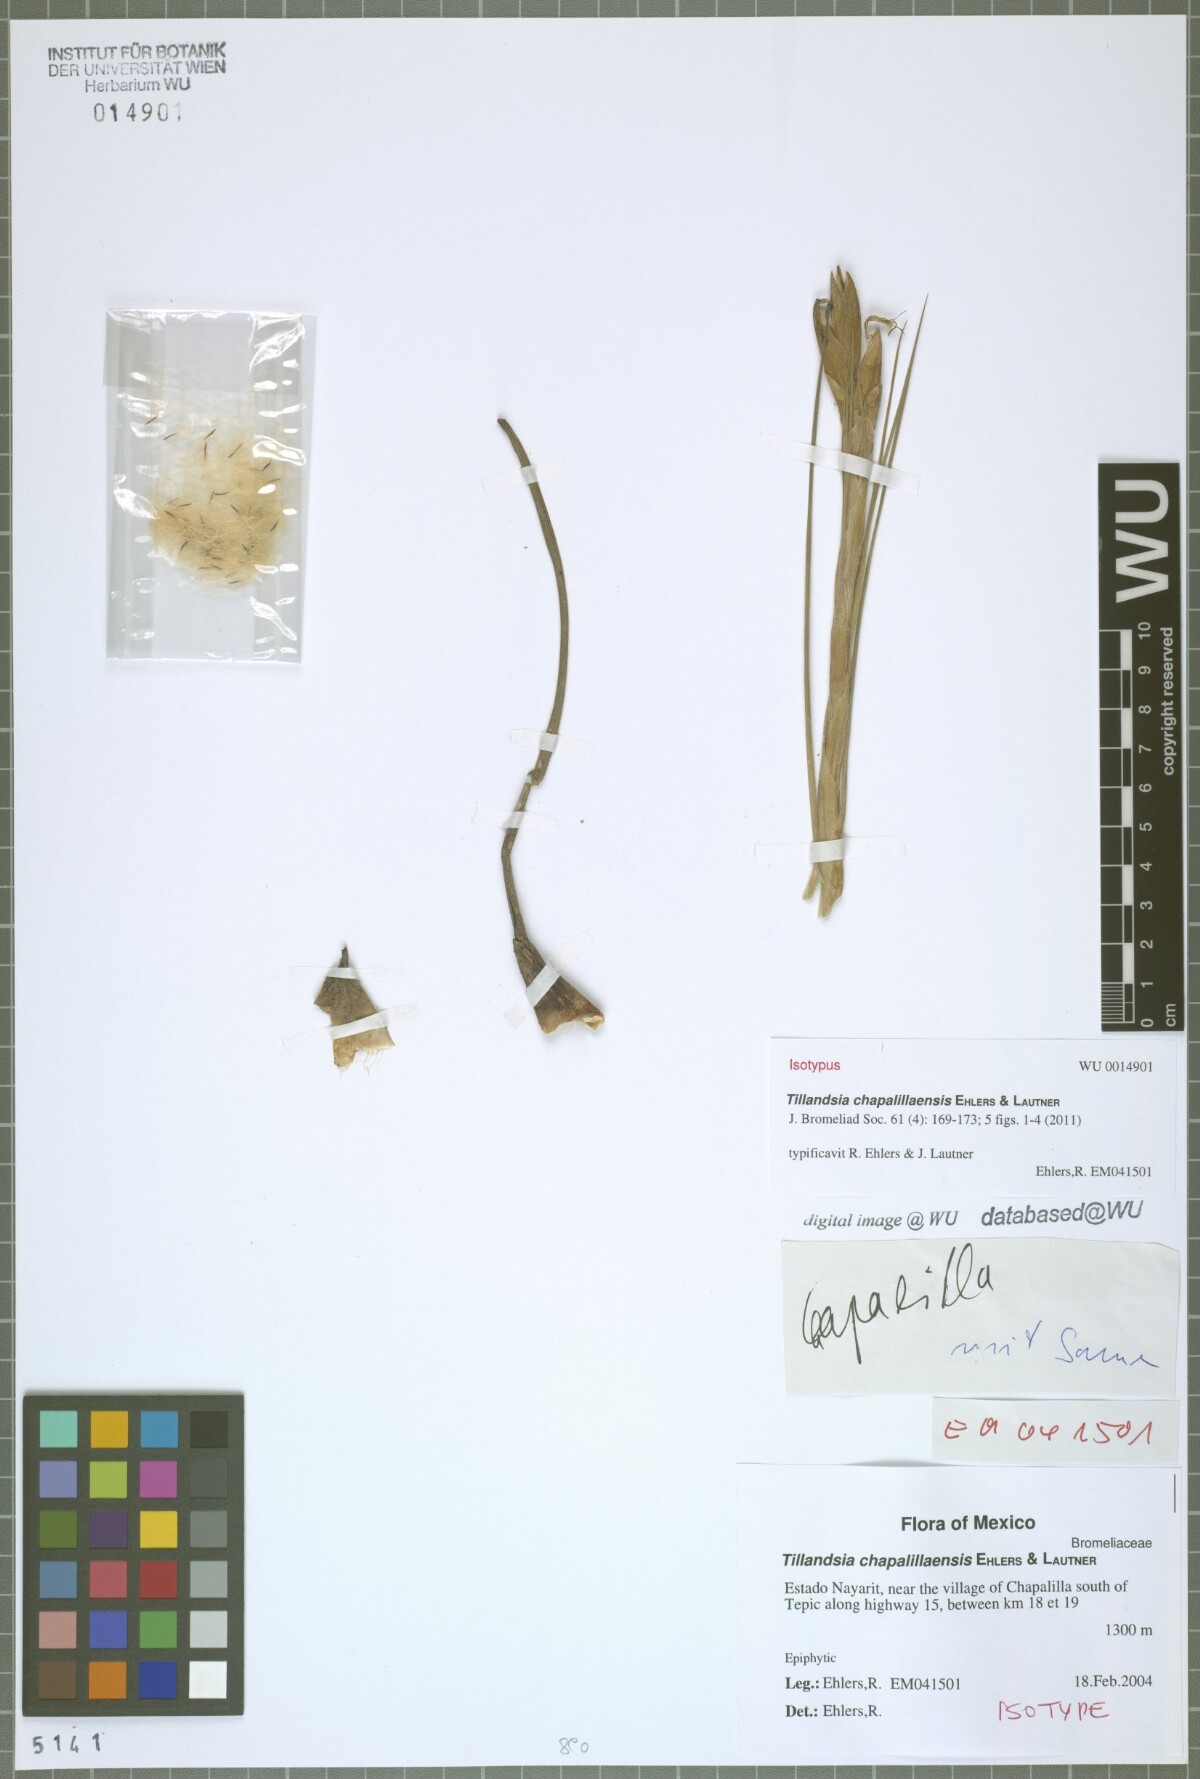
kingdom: Plantae
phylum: Tracheophyta
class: Liliopsida
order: Poales
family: Bromeliaceae
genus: Tillandsia
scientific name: Tillandsia chapalillaensis
